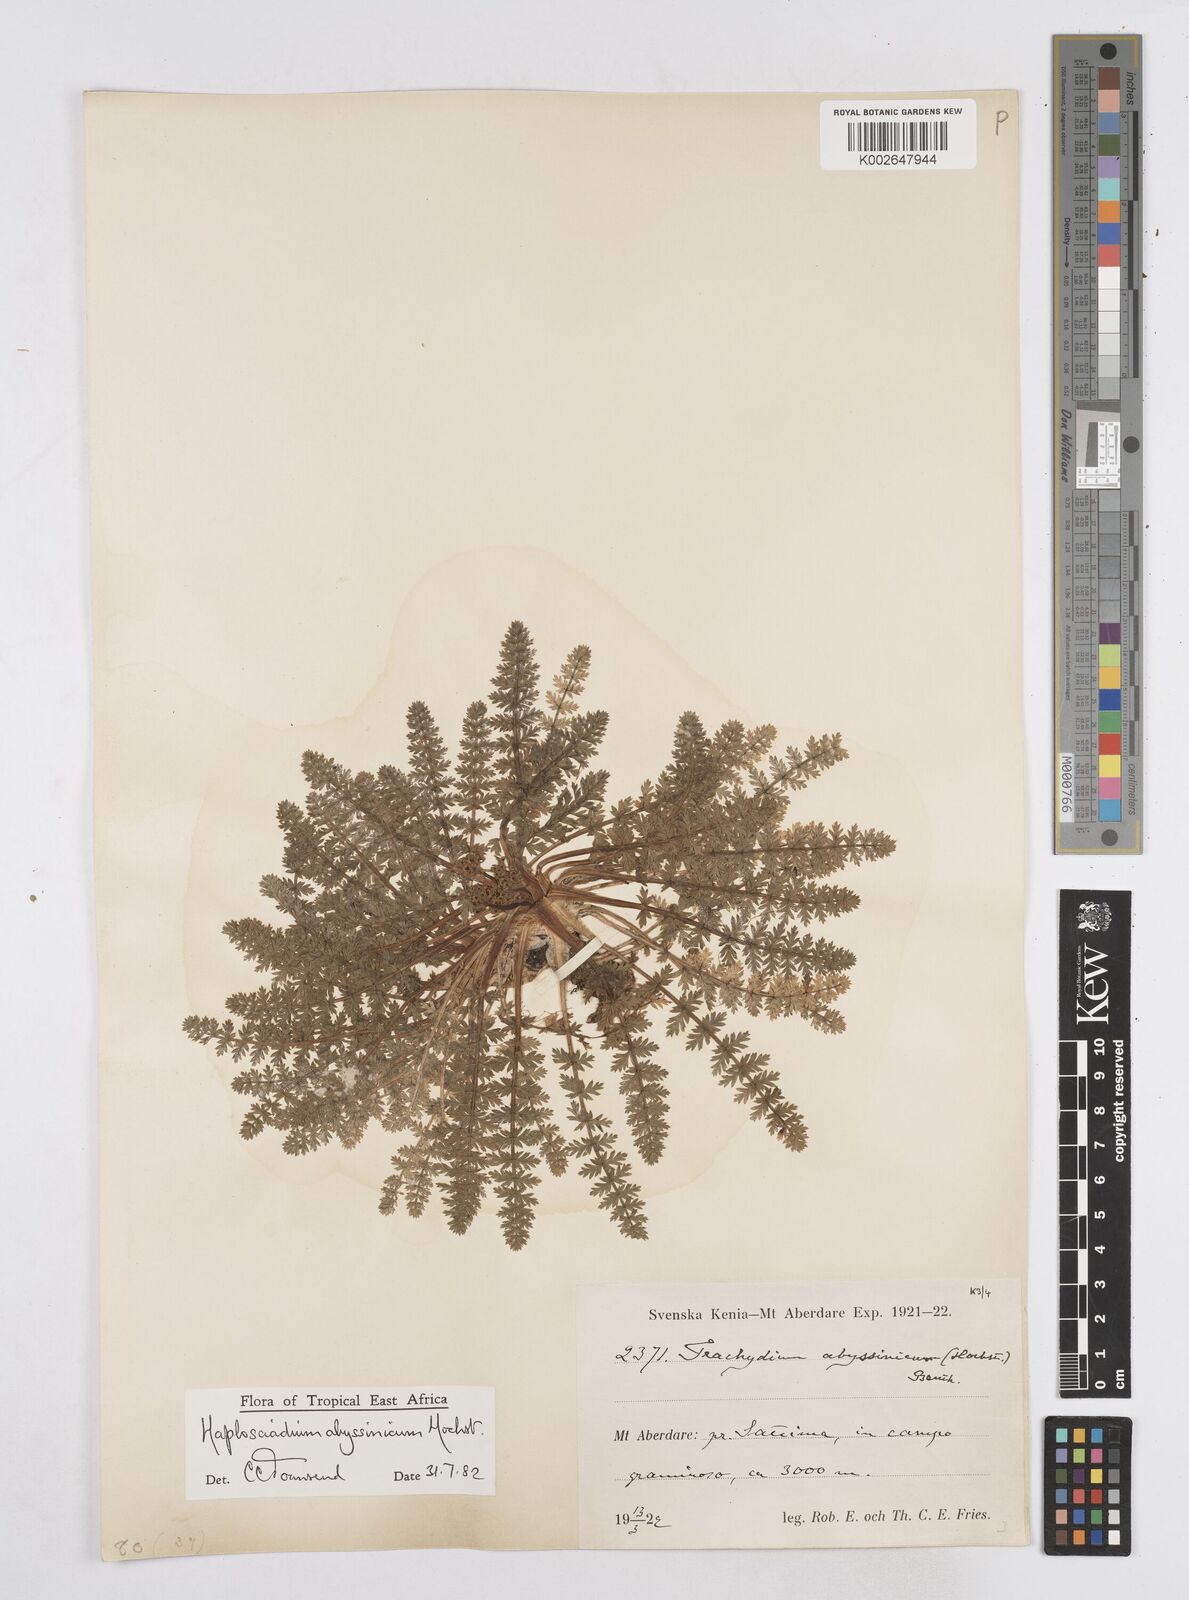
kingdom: Plantae
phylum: Tracheophyta
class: Magnoliopsida
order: Apiales
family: Apiaceae
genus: Haplosciadium
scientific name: Haplosciadium abyssinicum
